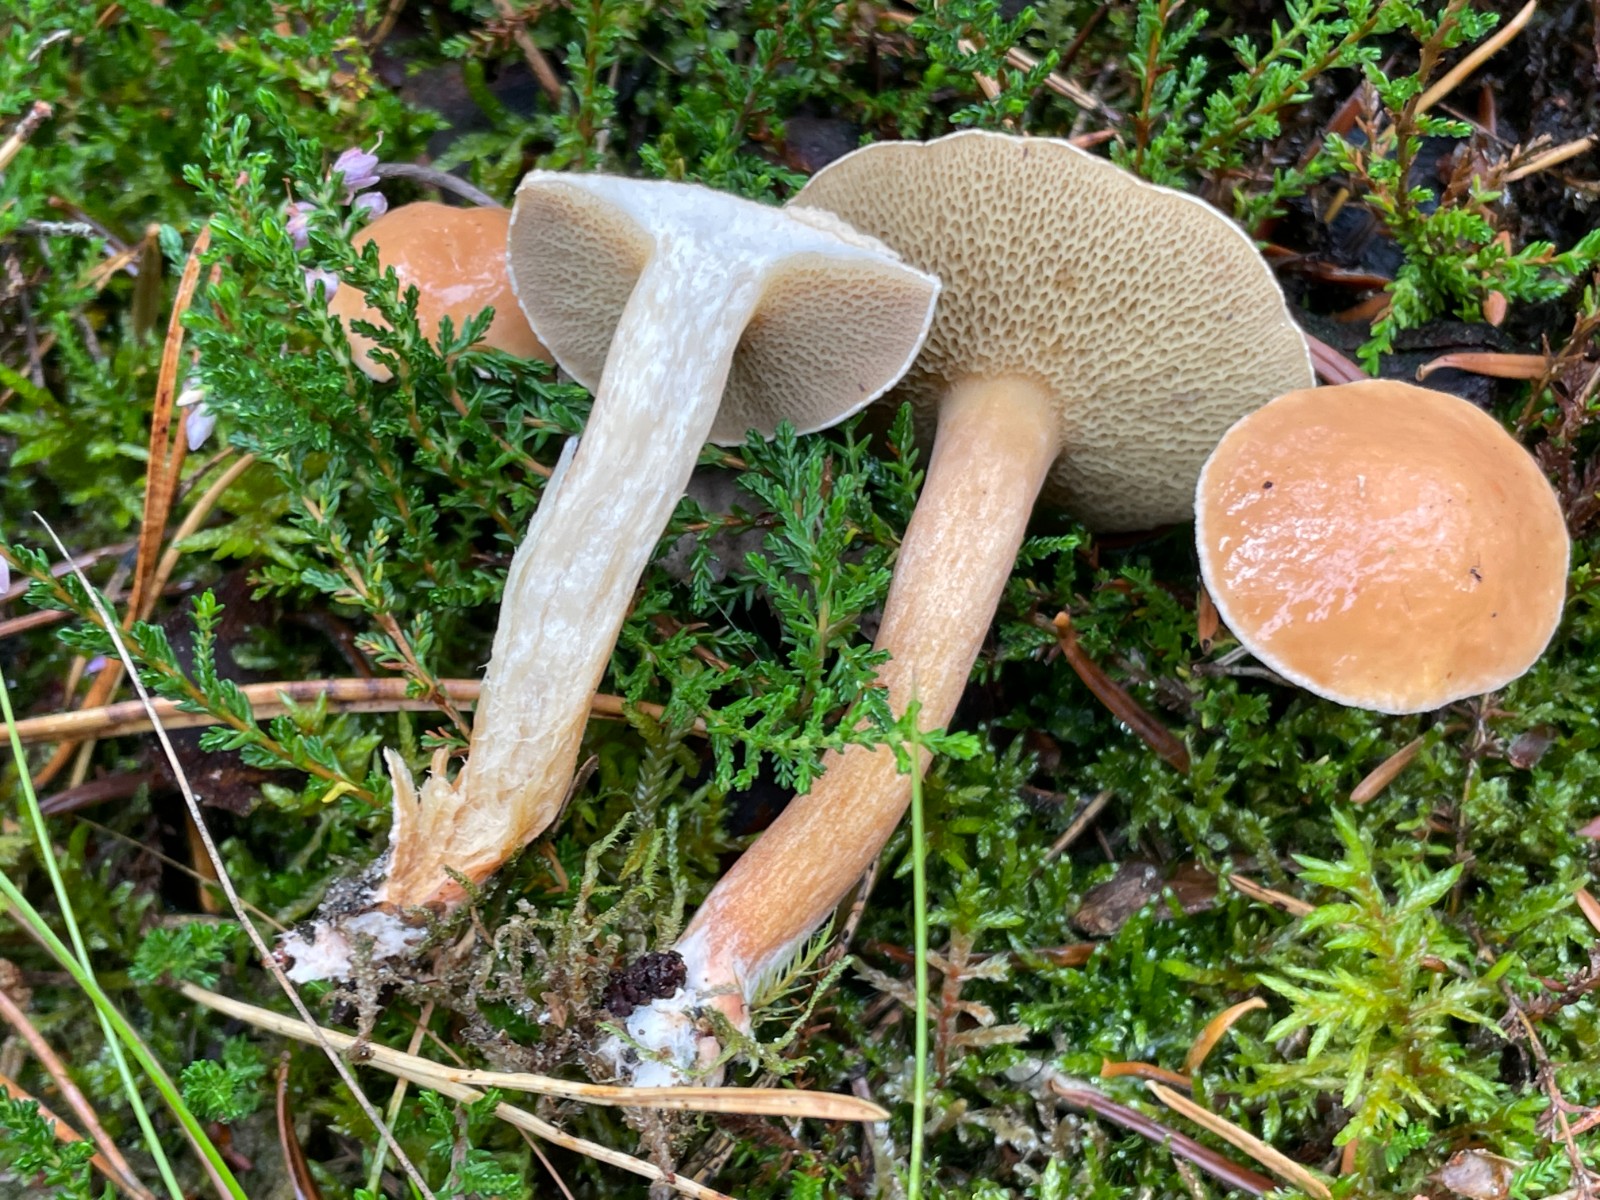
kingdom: Fungi
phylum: Basidiomycota
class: Agaricomycetes
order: Boletales
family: Suillaceae
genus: Suillus
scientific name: Suillus bovinus
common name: grovporet slimrørhat
